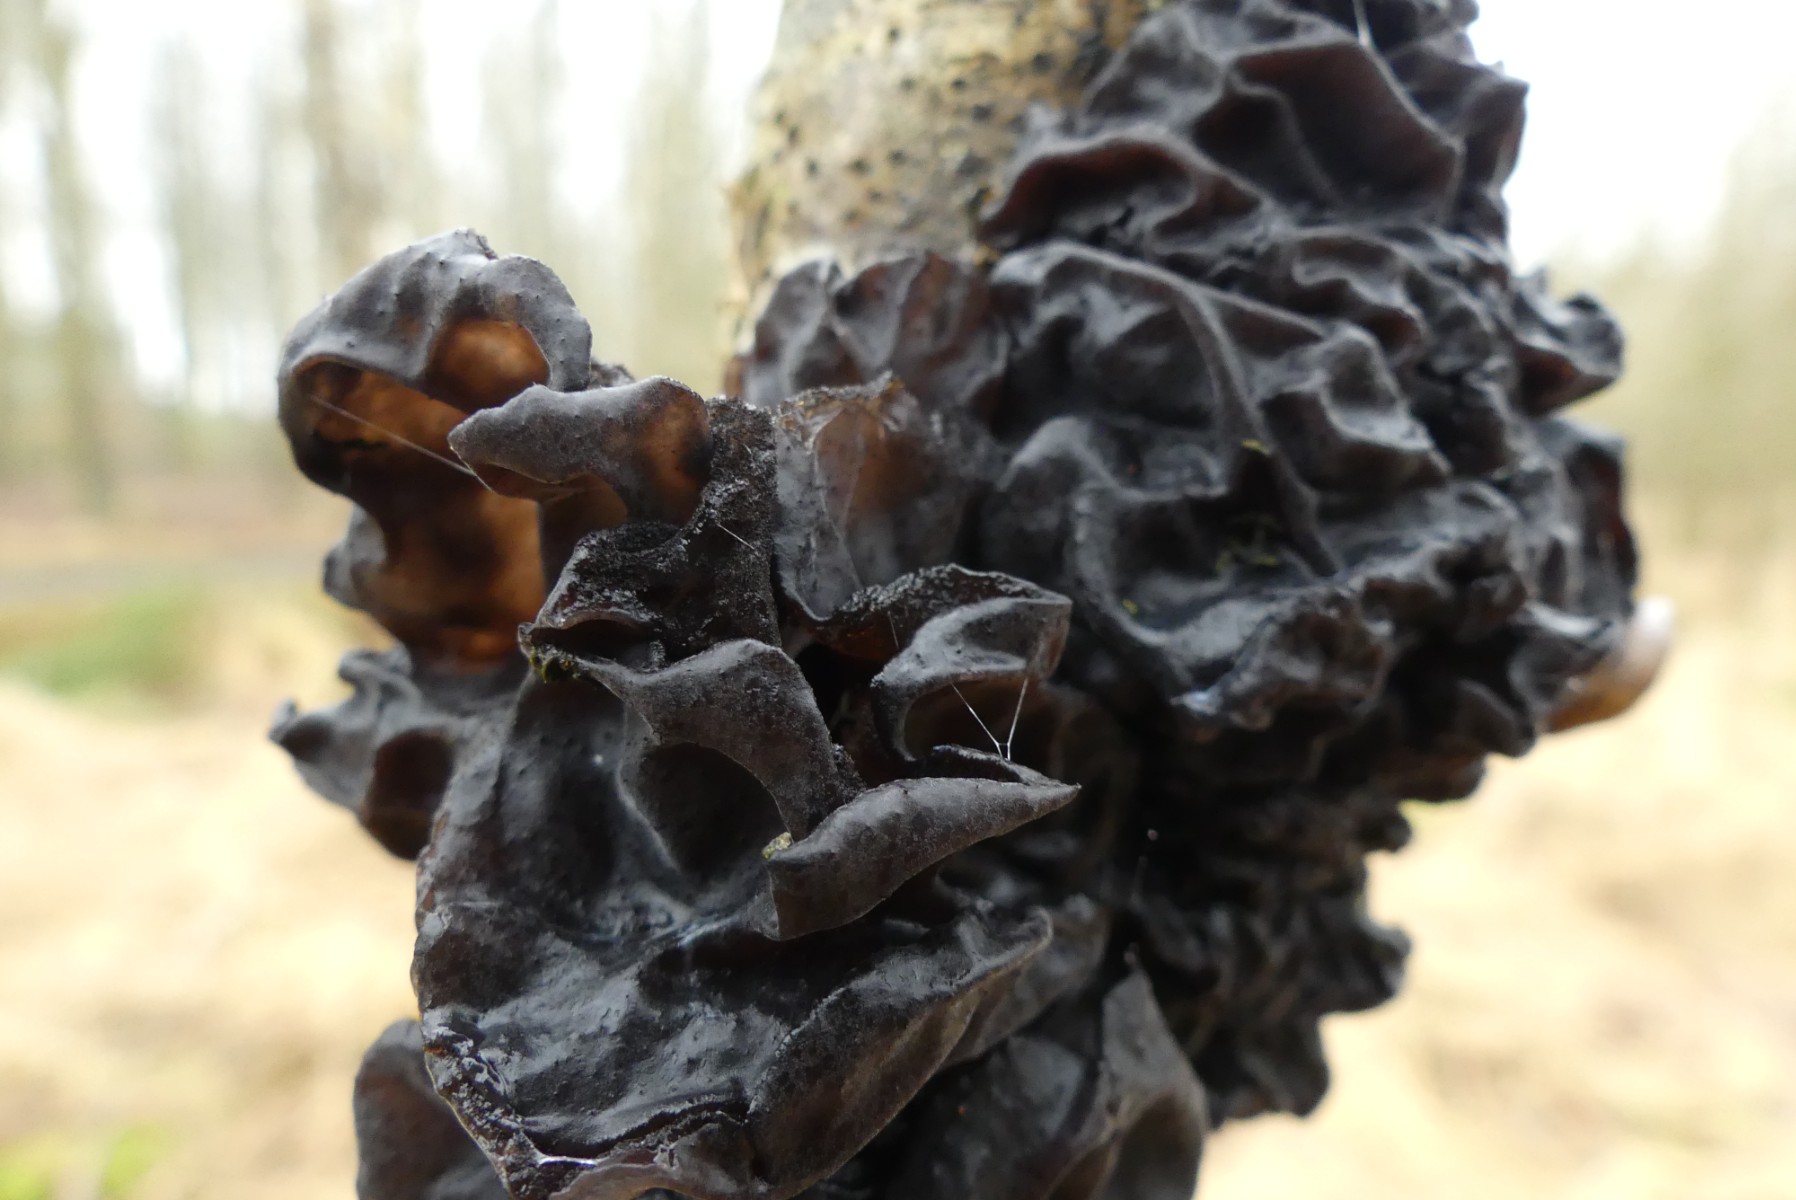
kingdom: Fungi
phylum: Basidiomycota
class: Agaricomycetes
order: Auriculariales
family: Auriculariaceae
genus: Exidia
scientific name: Exidia glandulosa
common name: ege-bævretop
